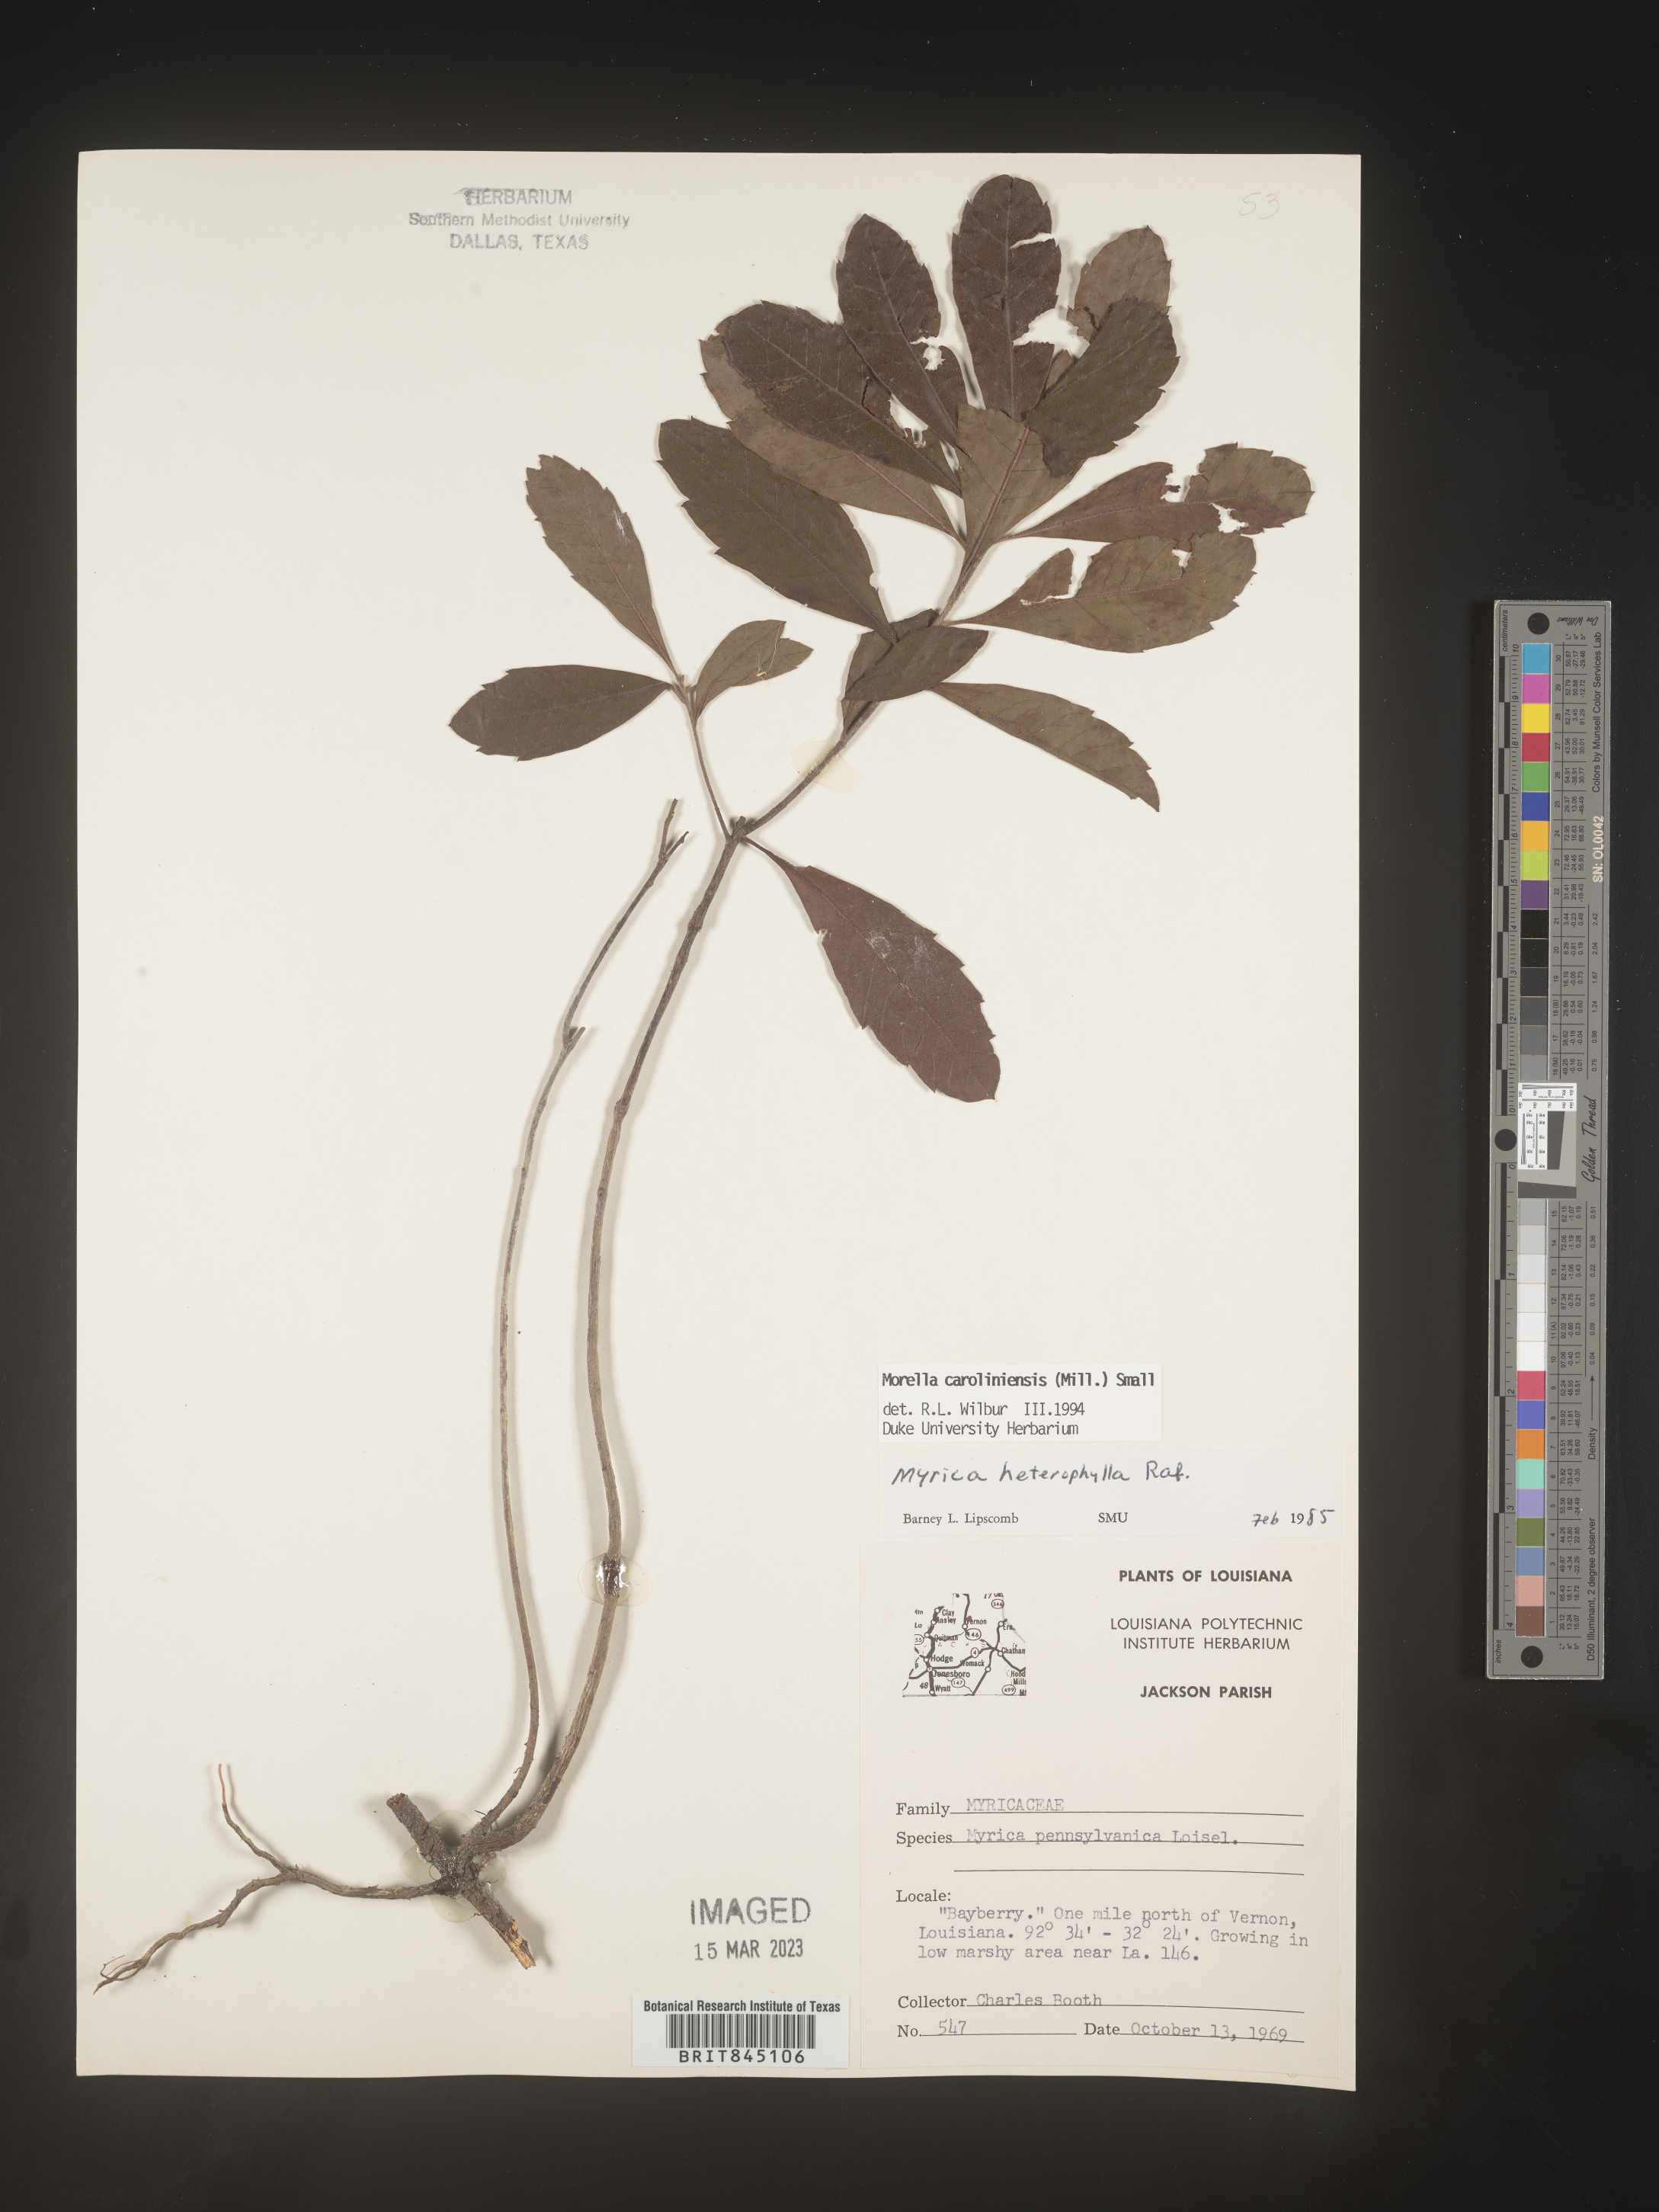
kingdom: Plantae
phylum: Tracheophyta
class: Magnoliopsida
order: Fagales
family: Myricaceae
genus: Morella
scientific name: Morella caroliniensis
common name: Evergreen bayberry
